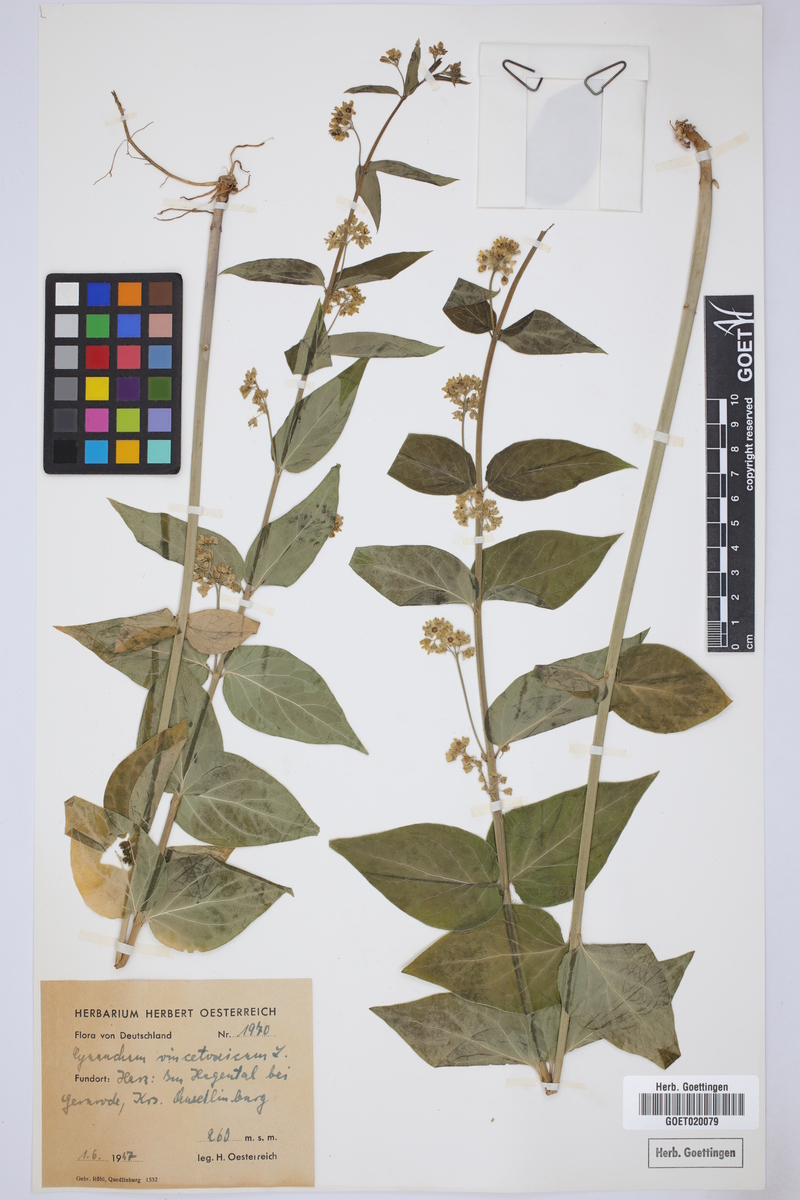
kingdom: Plantae
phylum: Tracheophyta
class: Magnoliopsida
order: Gentianales
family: Apocynaceae
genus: Vincetoxicum
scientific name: Vincetoxicum hirundinaria
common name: White swallowwort
